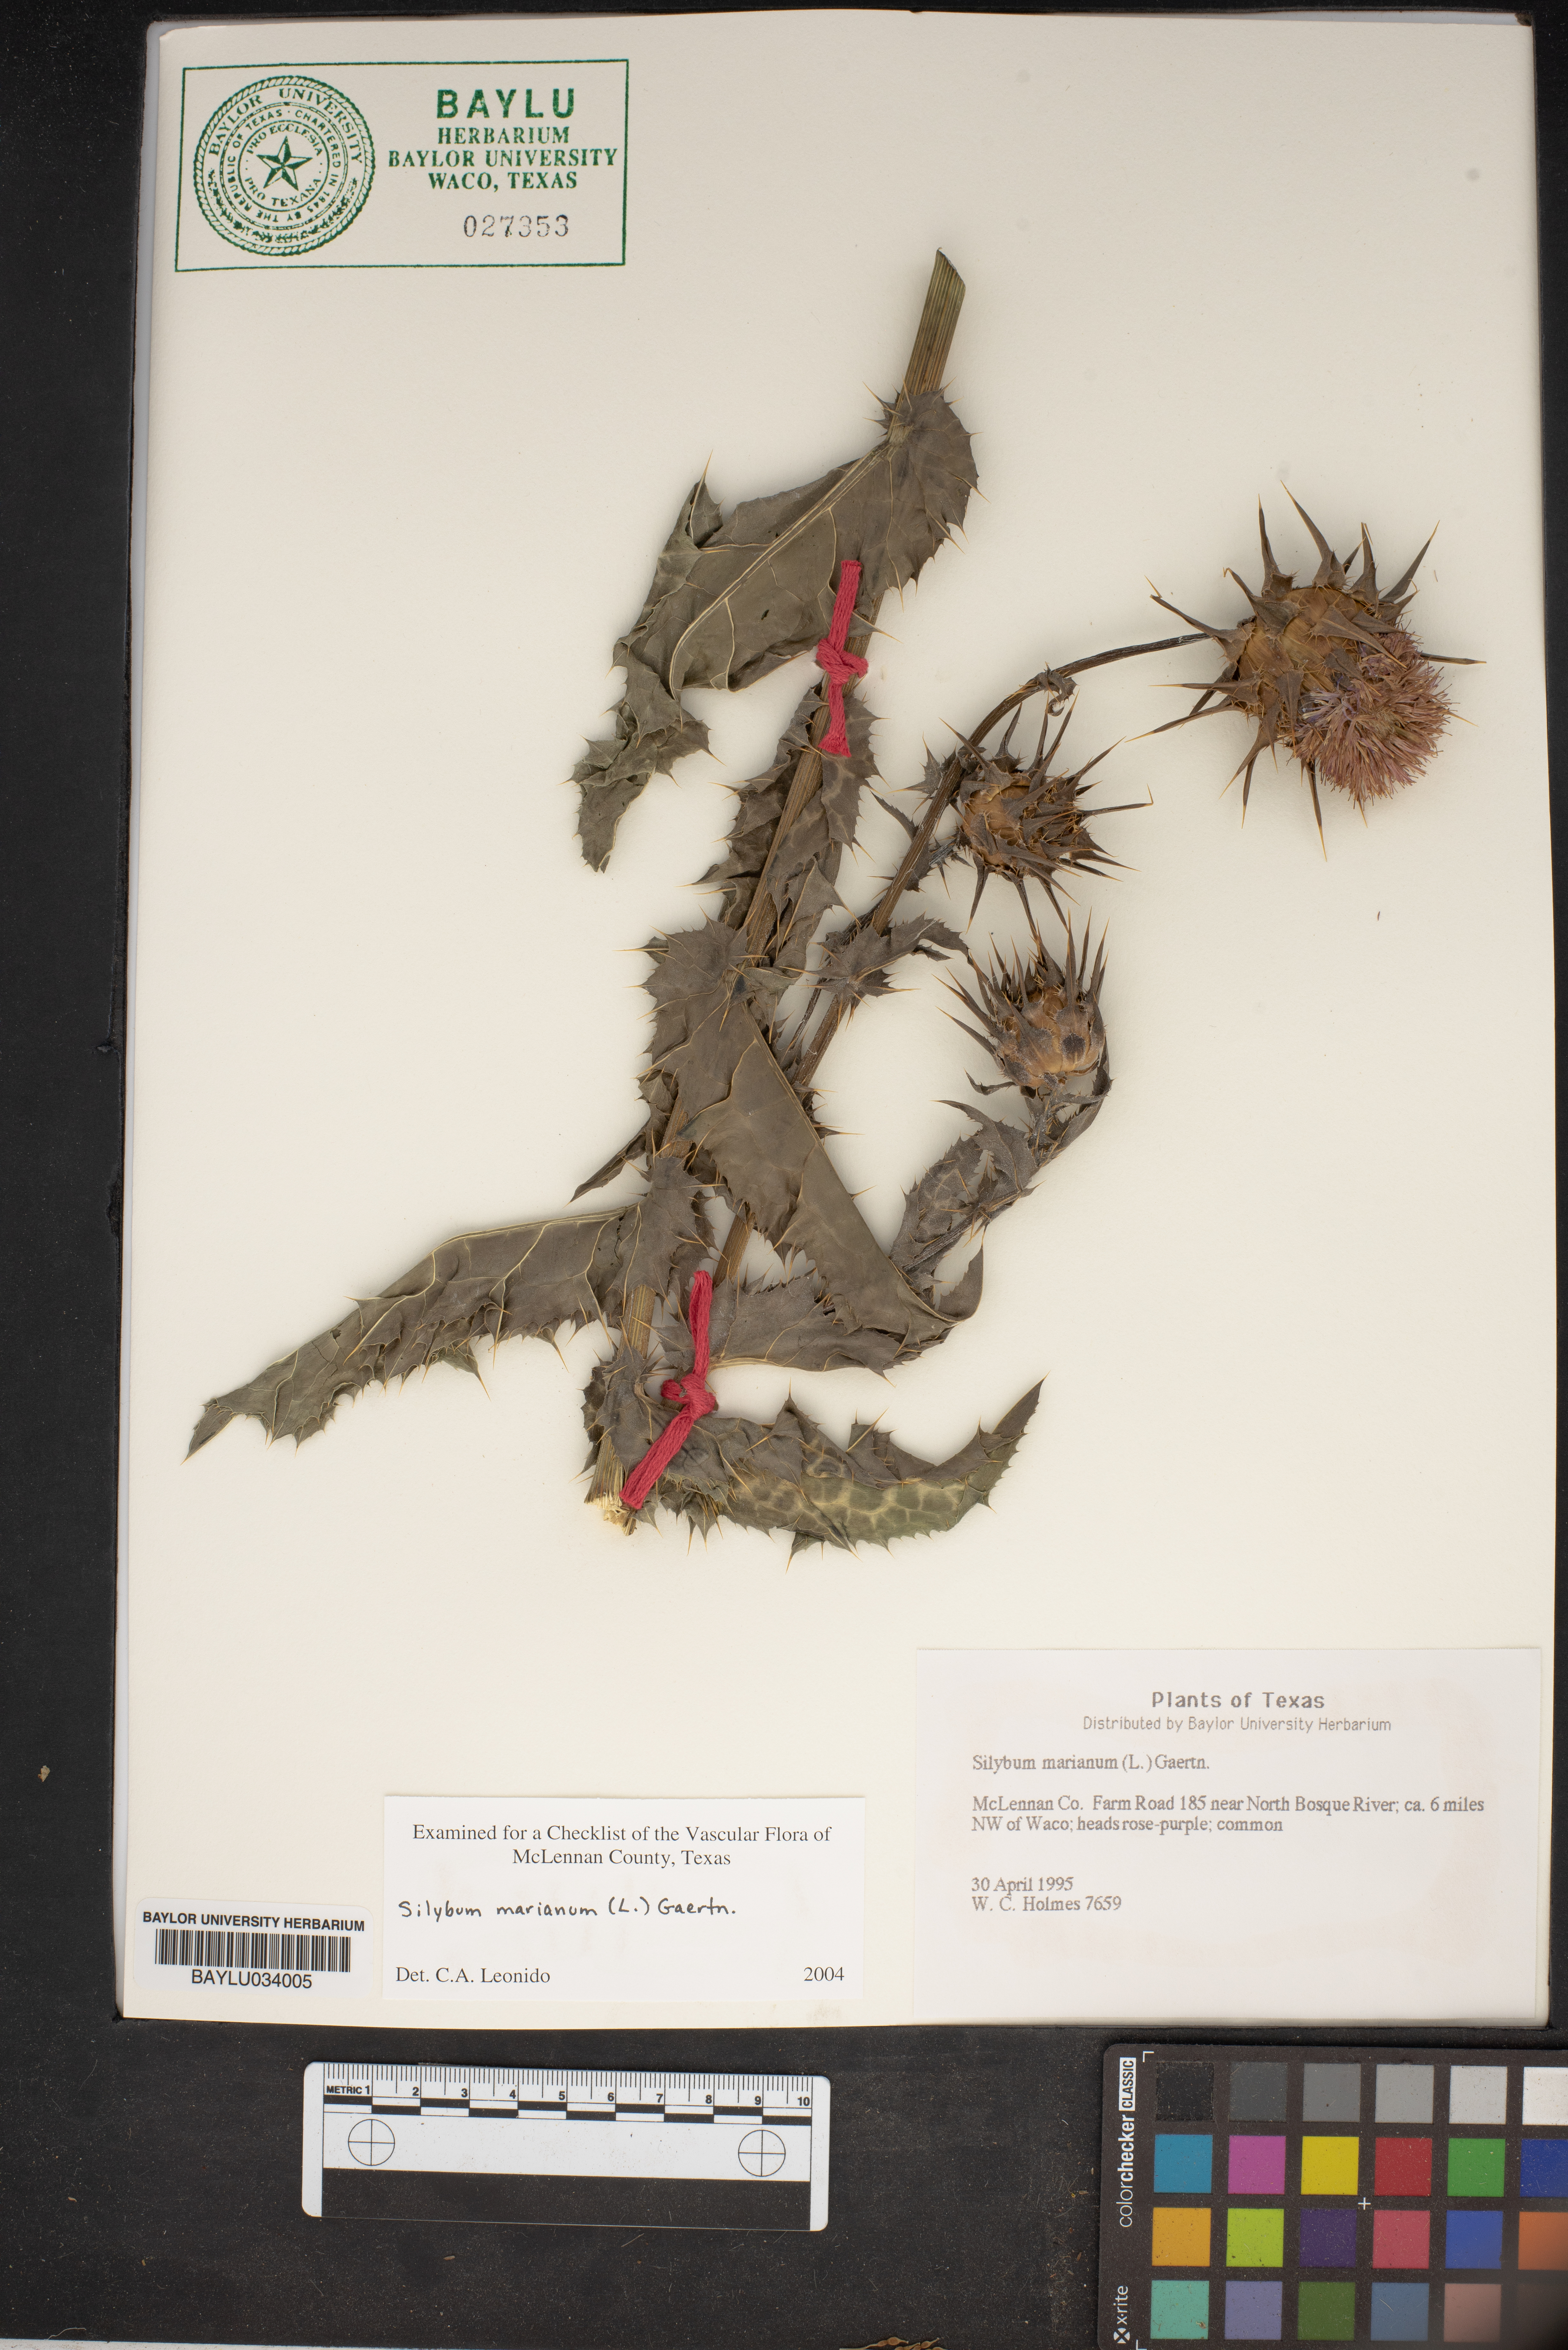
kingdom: Plantae
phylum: Tracheophyta
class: Magnoliopsida
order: Asterales
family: Asteraceae
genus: Silybum
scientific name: Silybum marianum
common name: Milk thistle
